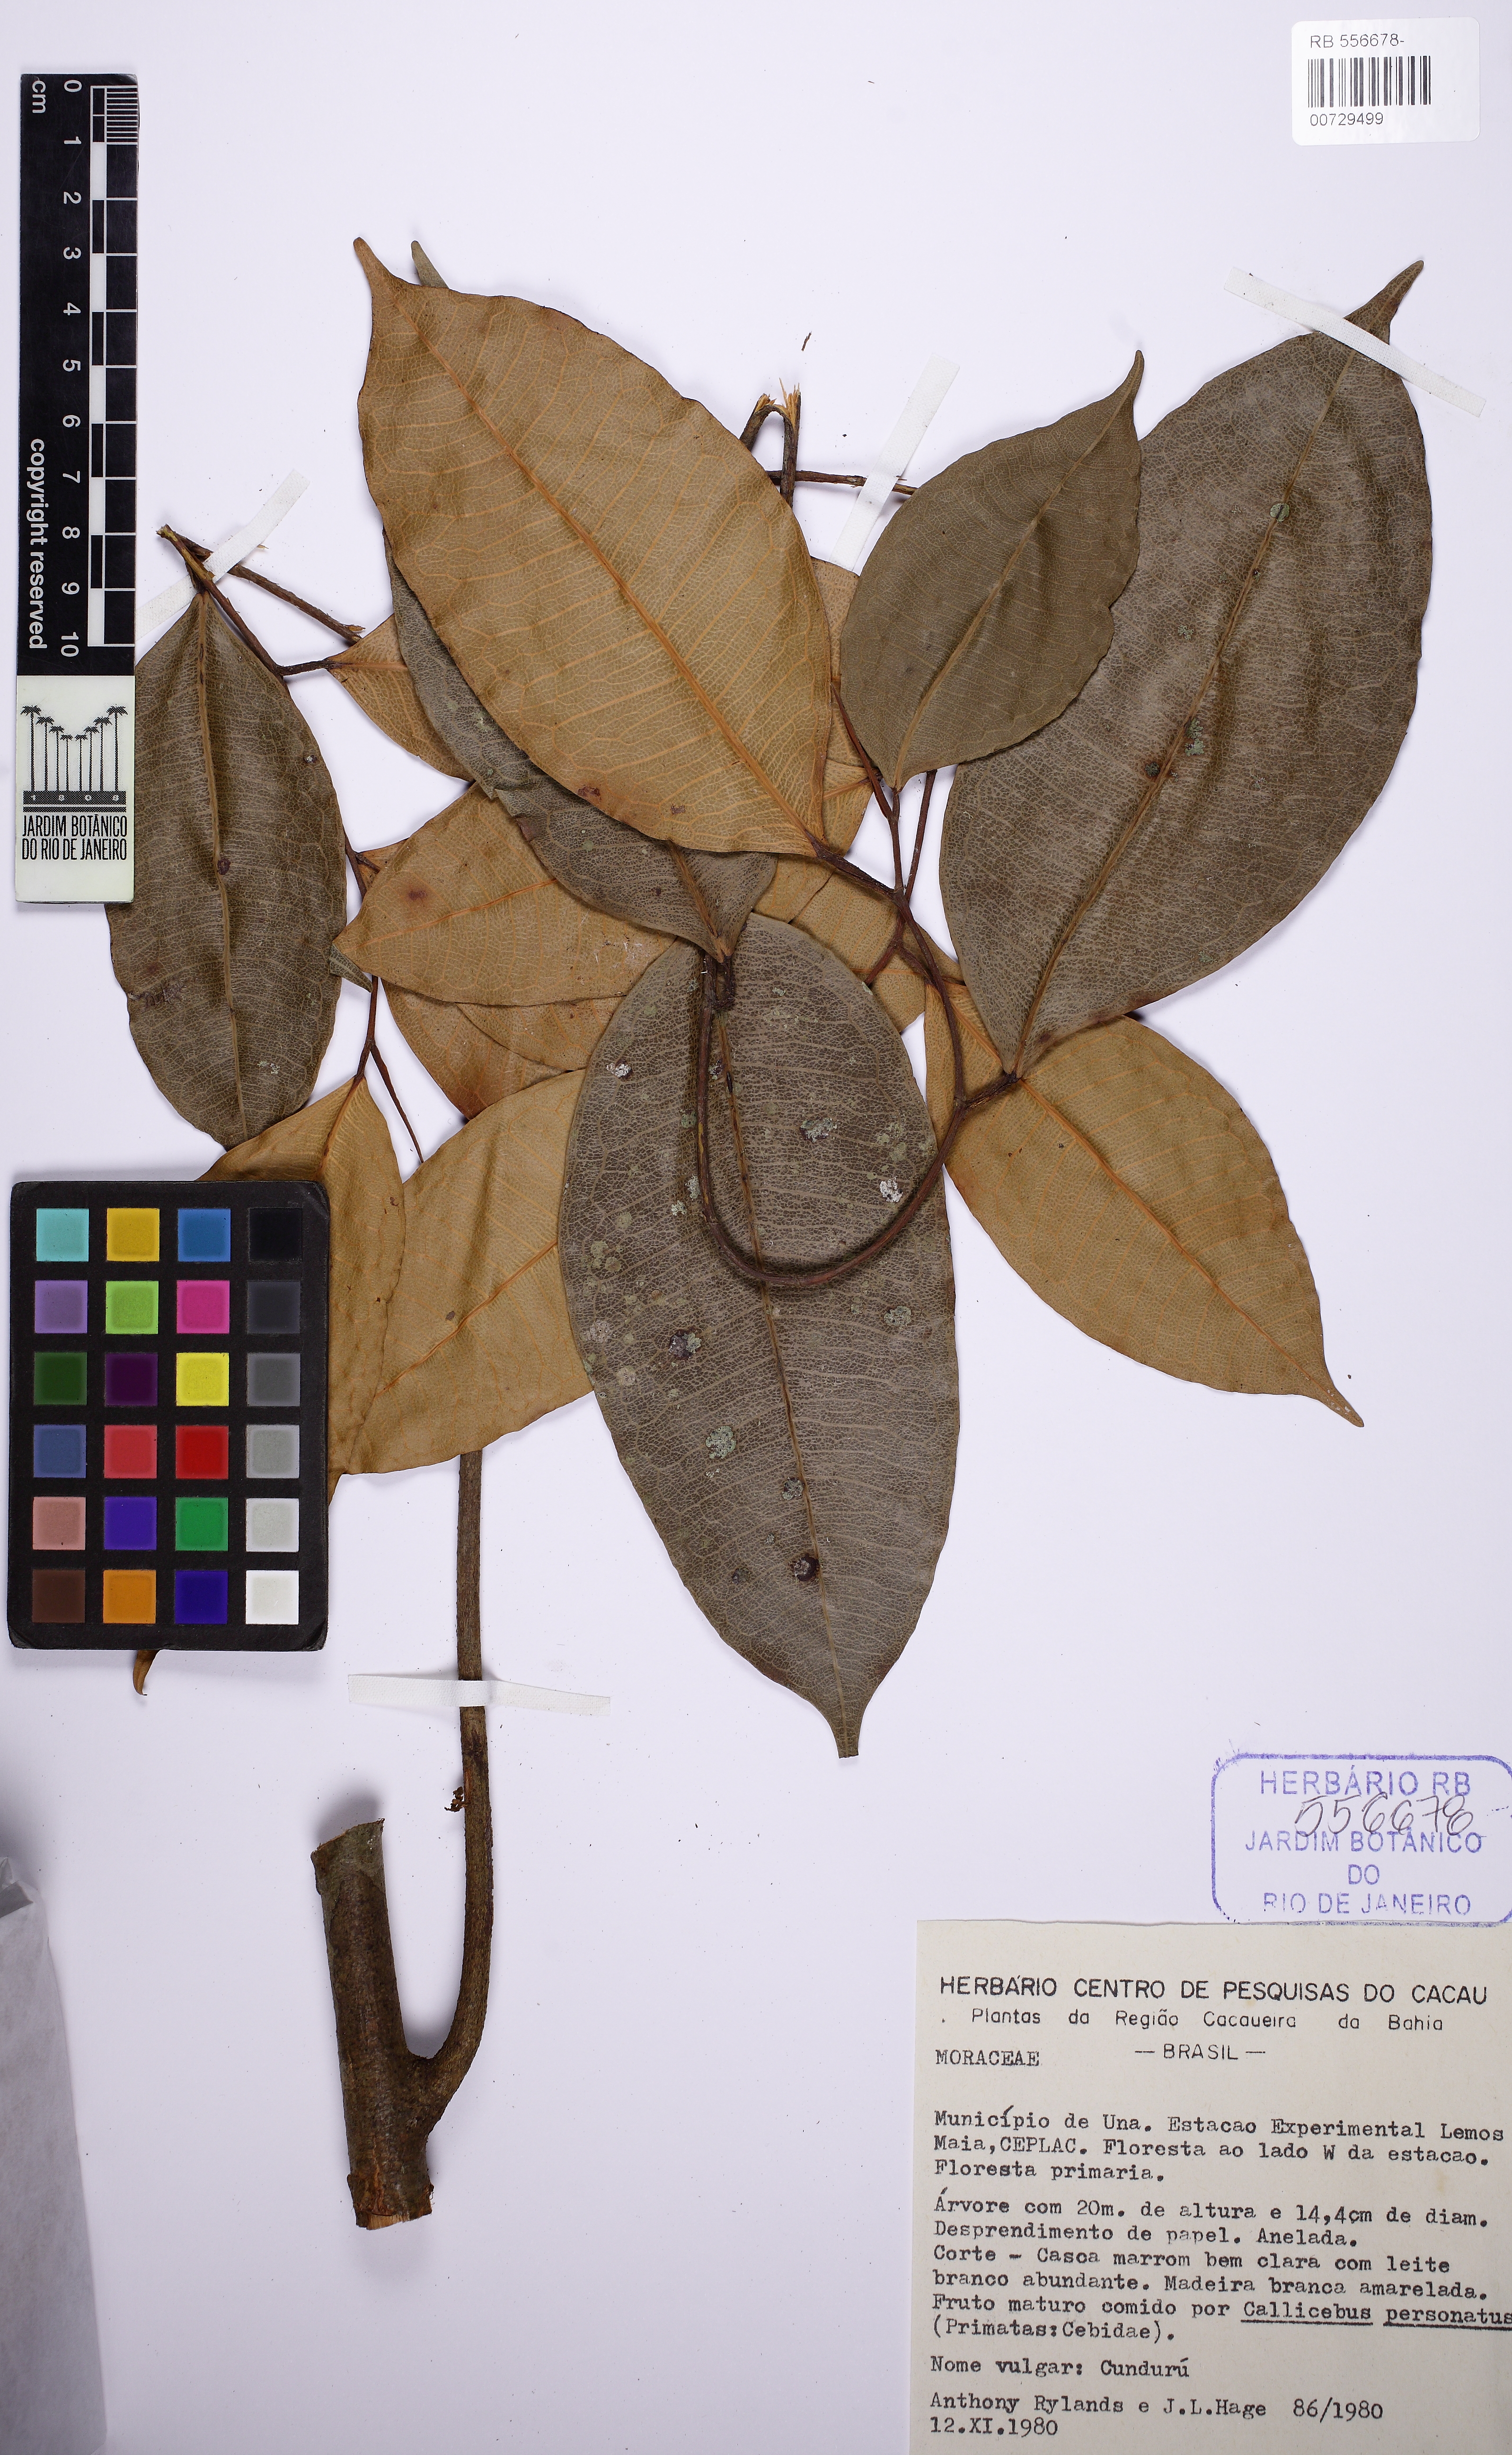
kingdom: Plantae
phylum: Tracheophyta
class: Magnoliopsida
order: Rosales
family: Moraceae
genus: Brosimum
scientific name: Brosimum
